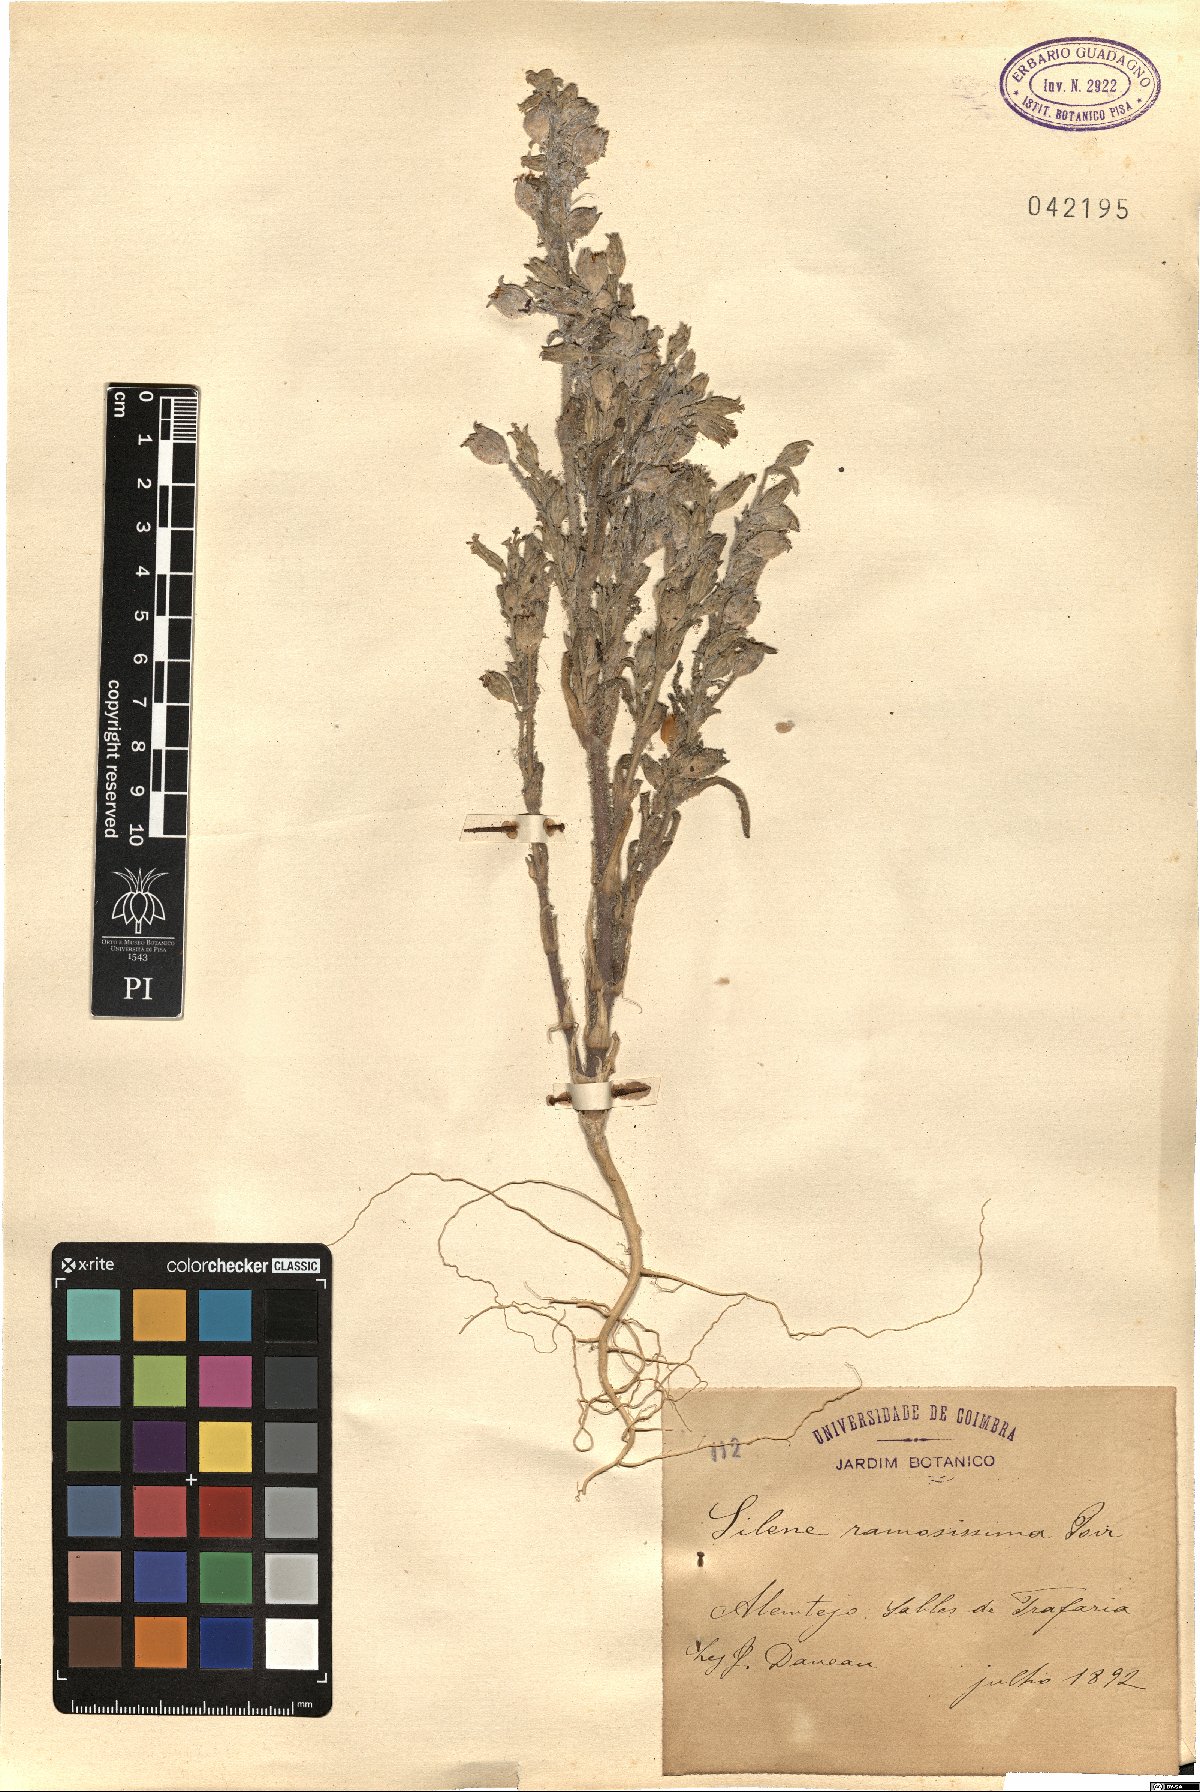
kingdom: Plantae
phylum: Tracheophyta
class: Magnoliopsida
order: Caryophyllales
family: Caryophyllaceae
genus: Silene
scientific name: Silene ramosissima
